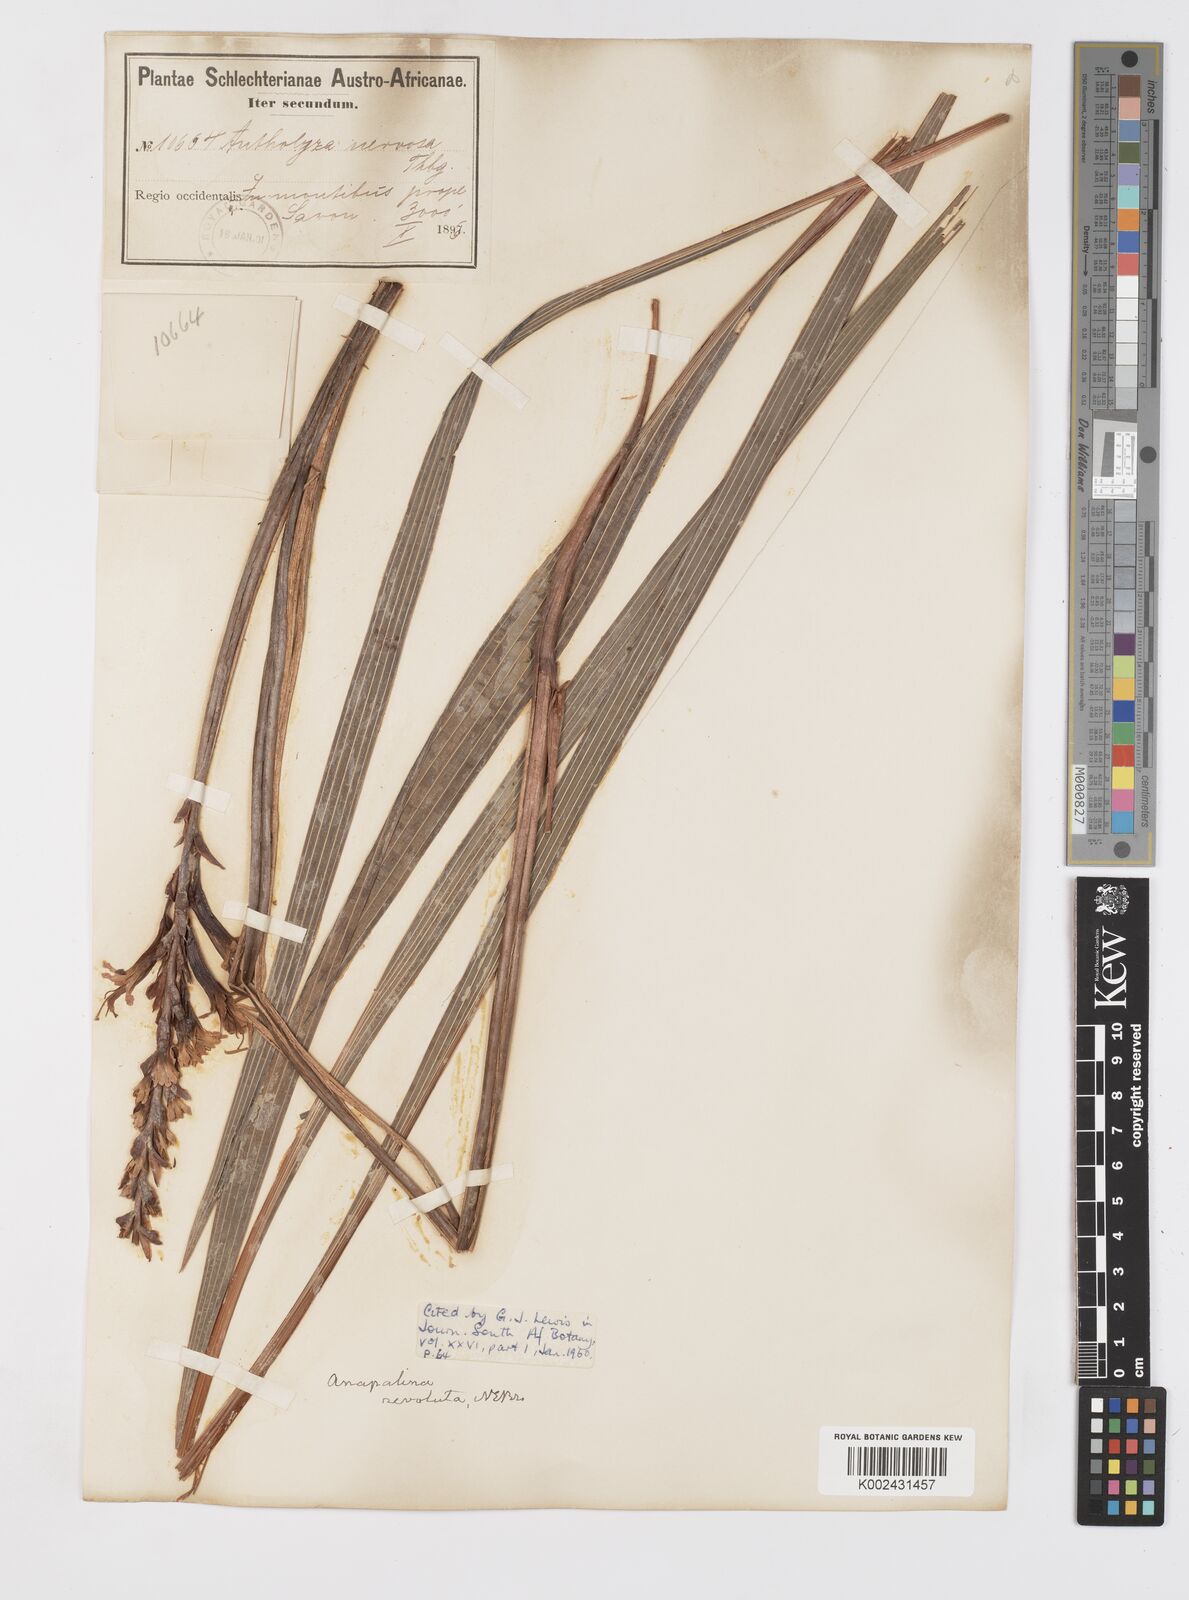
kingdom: Plantae
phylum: Tracheophyta
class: Liliopsida
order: Asparagales
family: Iridaceae
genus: Tritoniopsis
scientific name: Tritoniopsis nervosa
